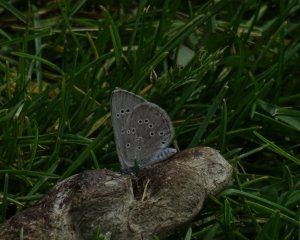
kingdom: Animalia
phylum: Arthropoda
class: Insecta
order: Lepidoptera
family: Lycaenidae
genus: Glaucopsyche
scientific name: Glaucopsyche lygdamus
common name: Silvery Blue
